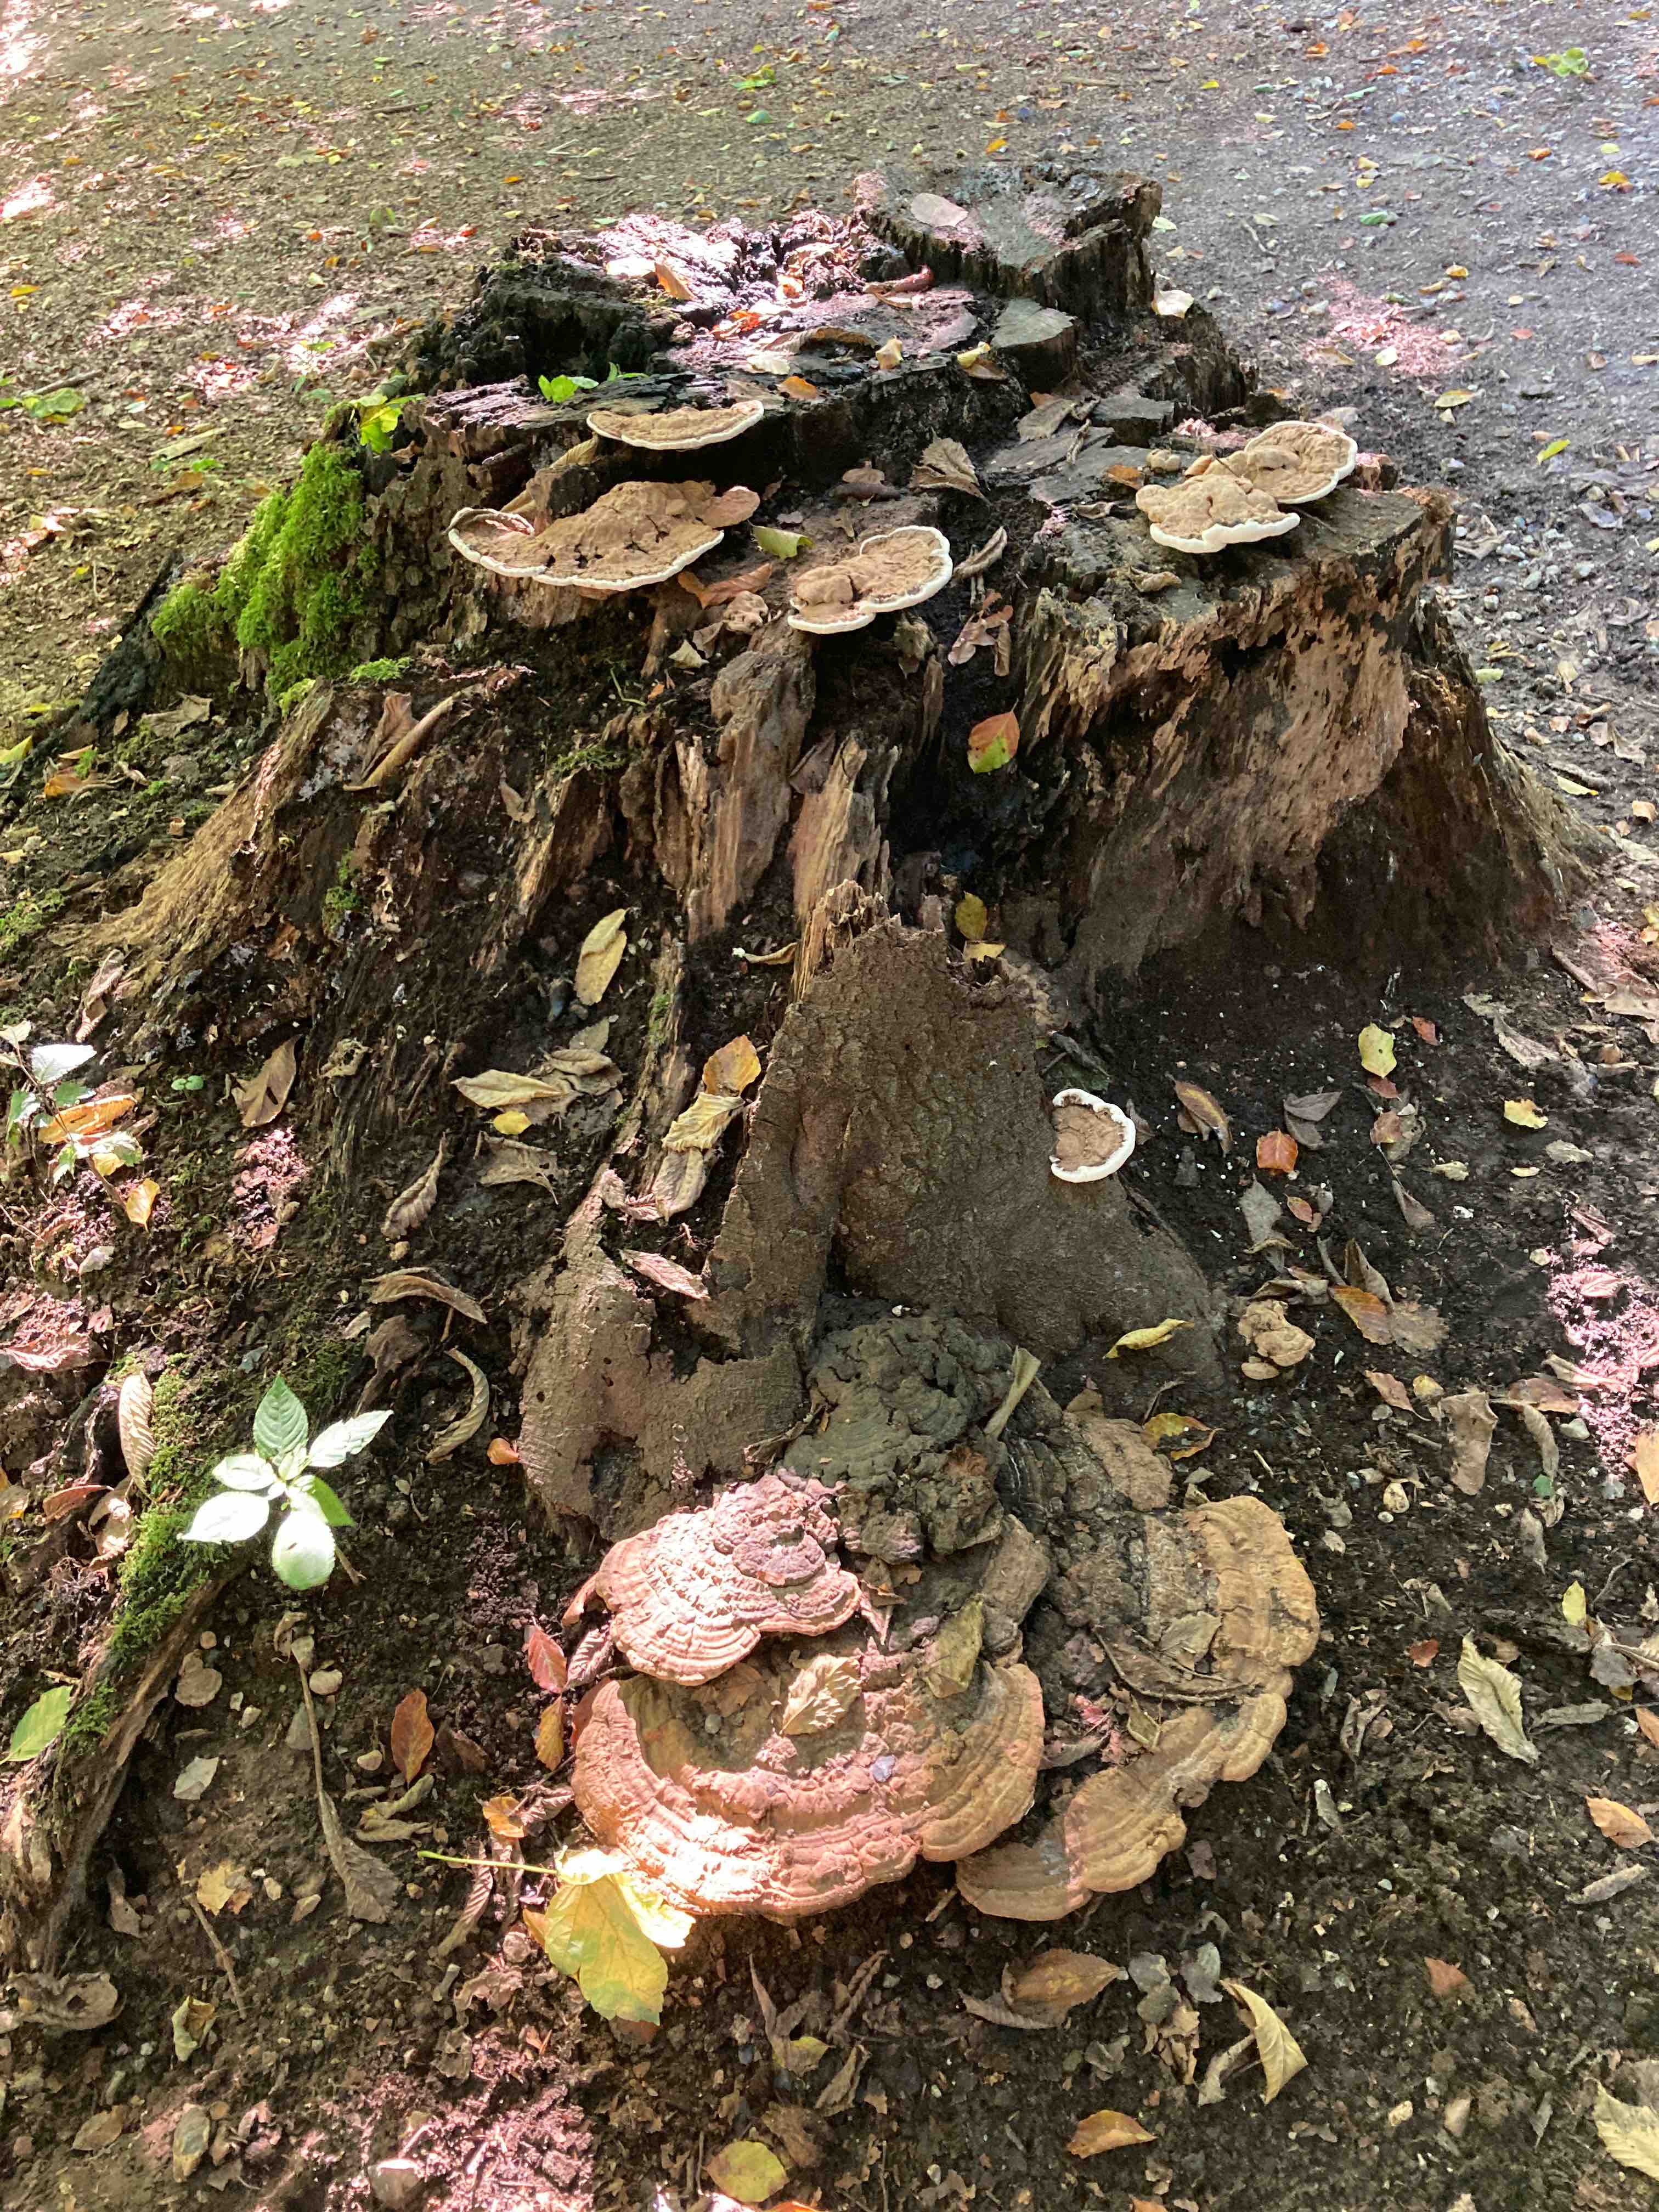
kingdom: Fungi
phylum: Basidiomycota
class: Agaricomycetes
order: Polyporales
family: Polyporaceae
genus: Ganoderma
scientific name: Ganoderma applanatum
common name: flad lakporesvamp
